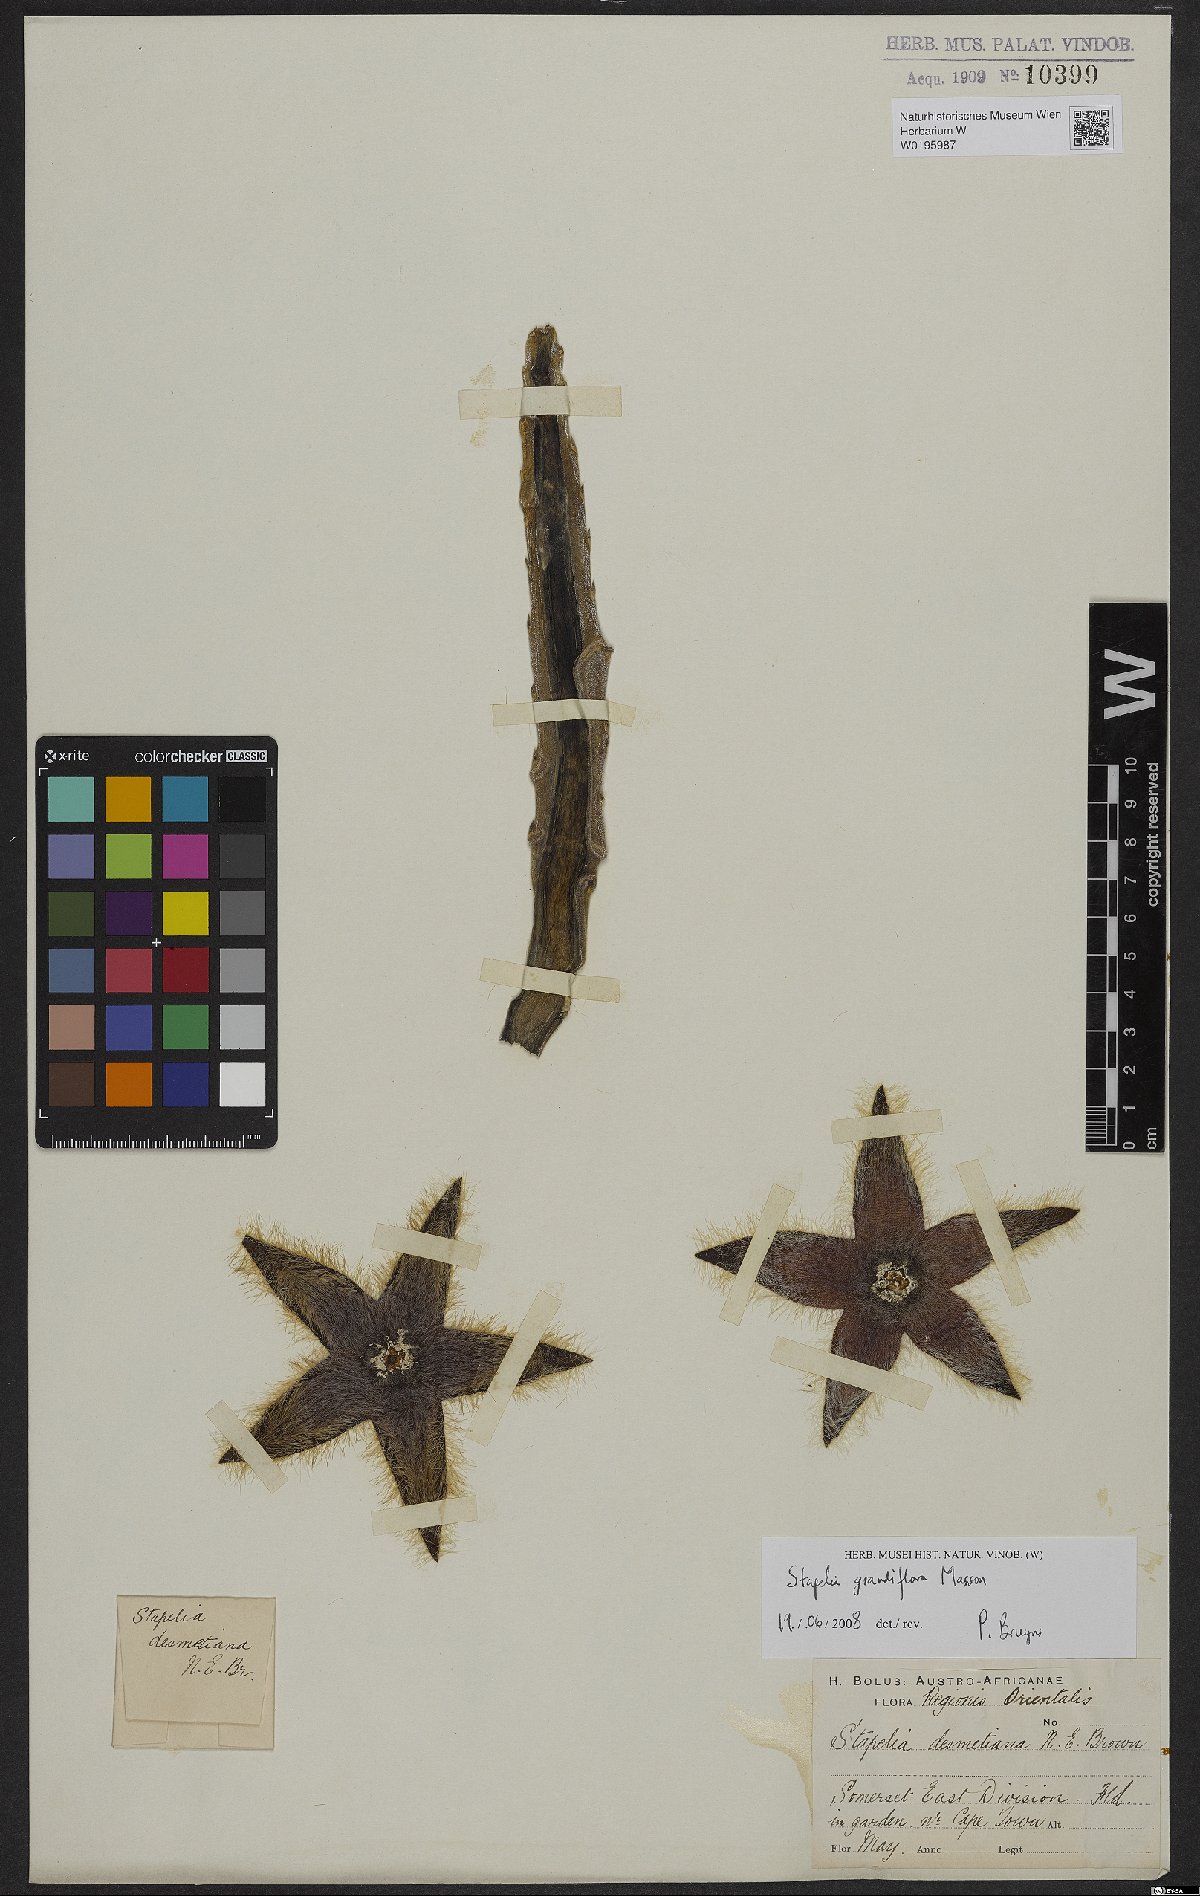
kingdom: Plantae
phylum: Tracheophyta
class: Magnoliopsida
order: Gentianales
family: Apocynaceae
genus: Ceropegia
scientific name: Ceropegia grandiflora
